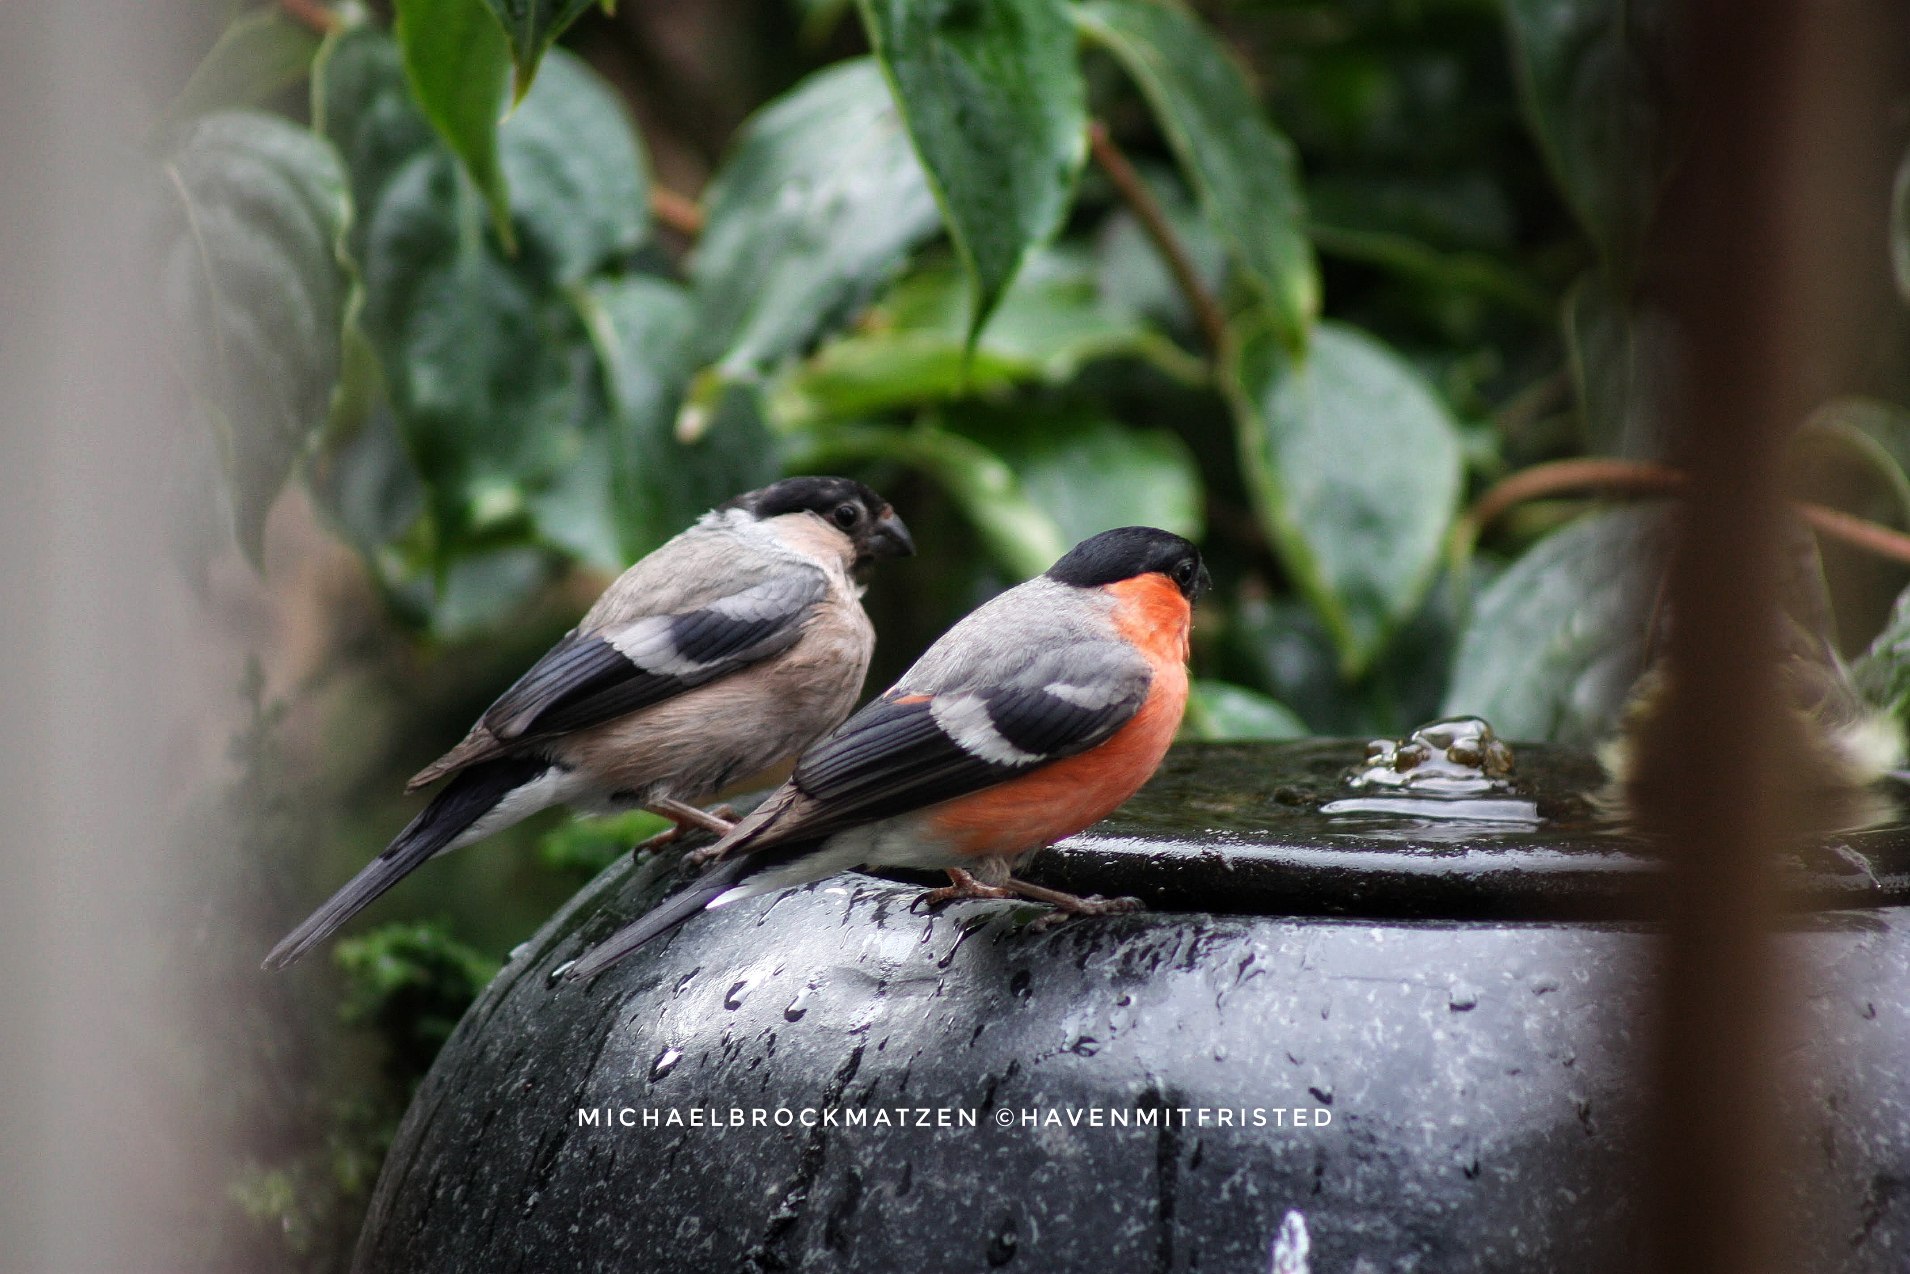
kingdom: Animalia
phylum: Chordata
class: Aves
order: Passeriformes
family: Fringillidae
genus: Pyrrhula
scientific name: Pyrrhula pyrrhula
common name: Dompap
